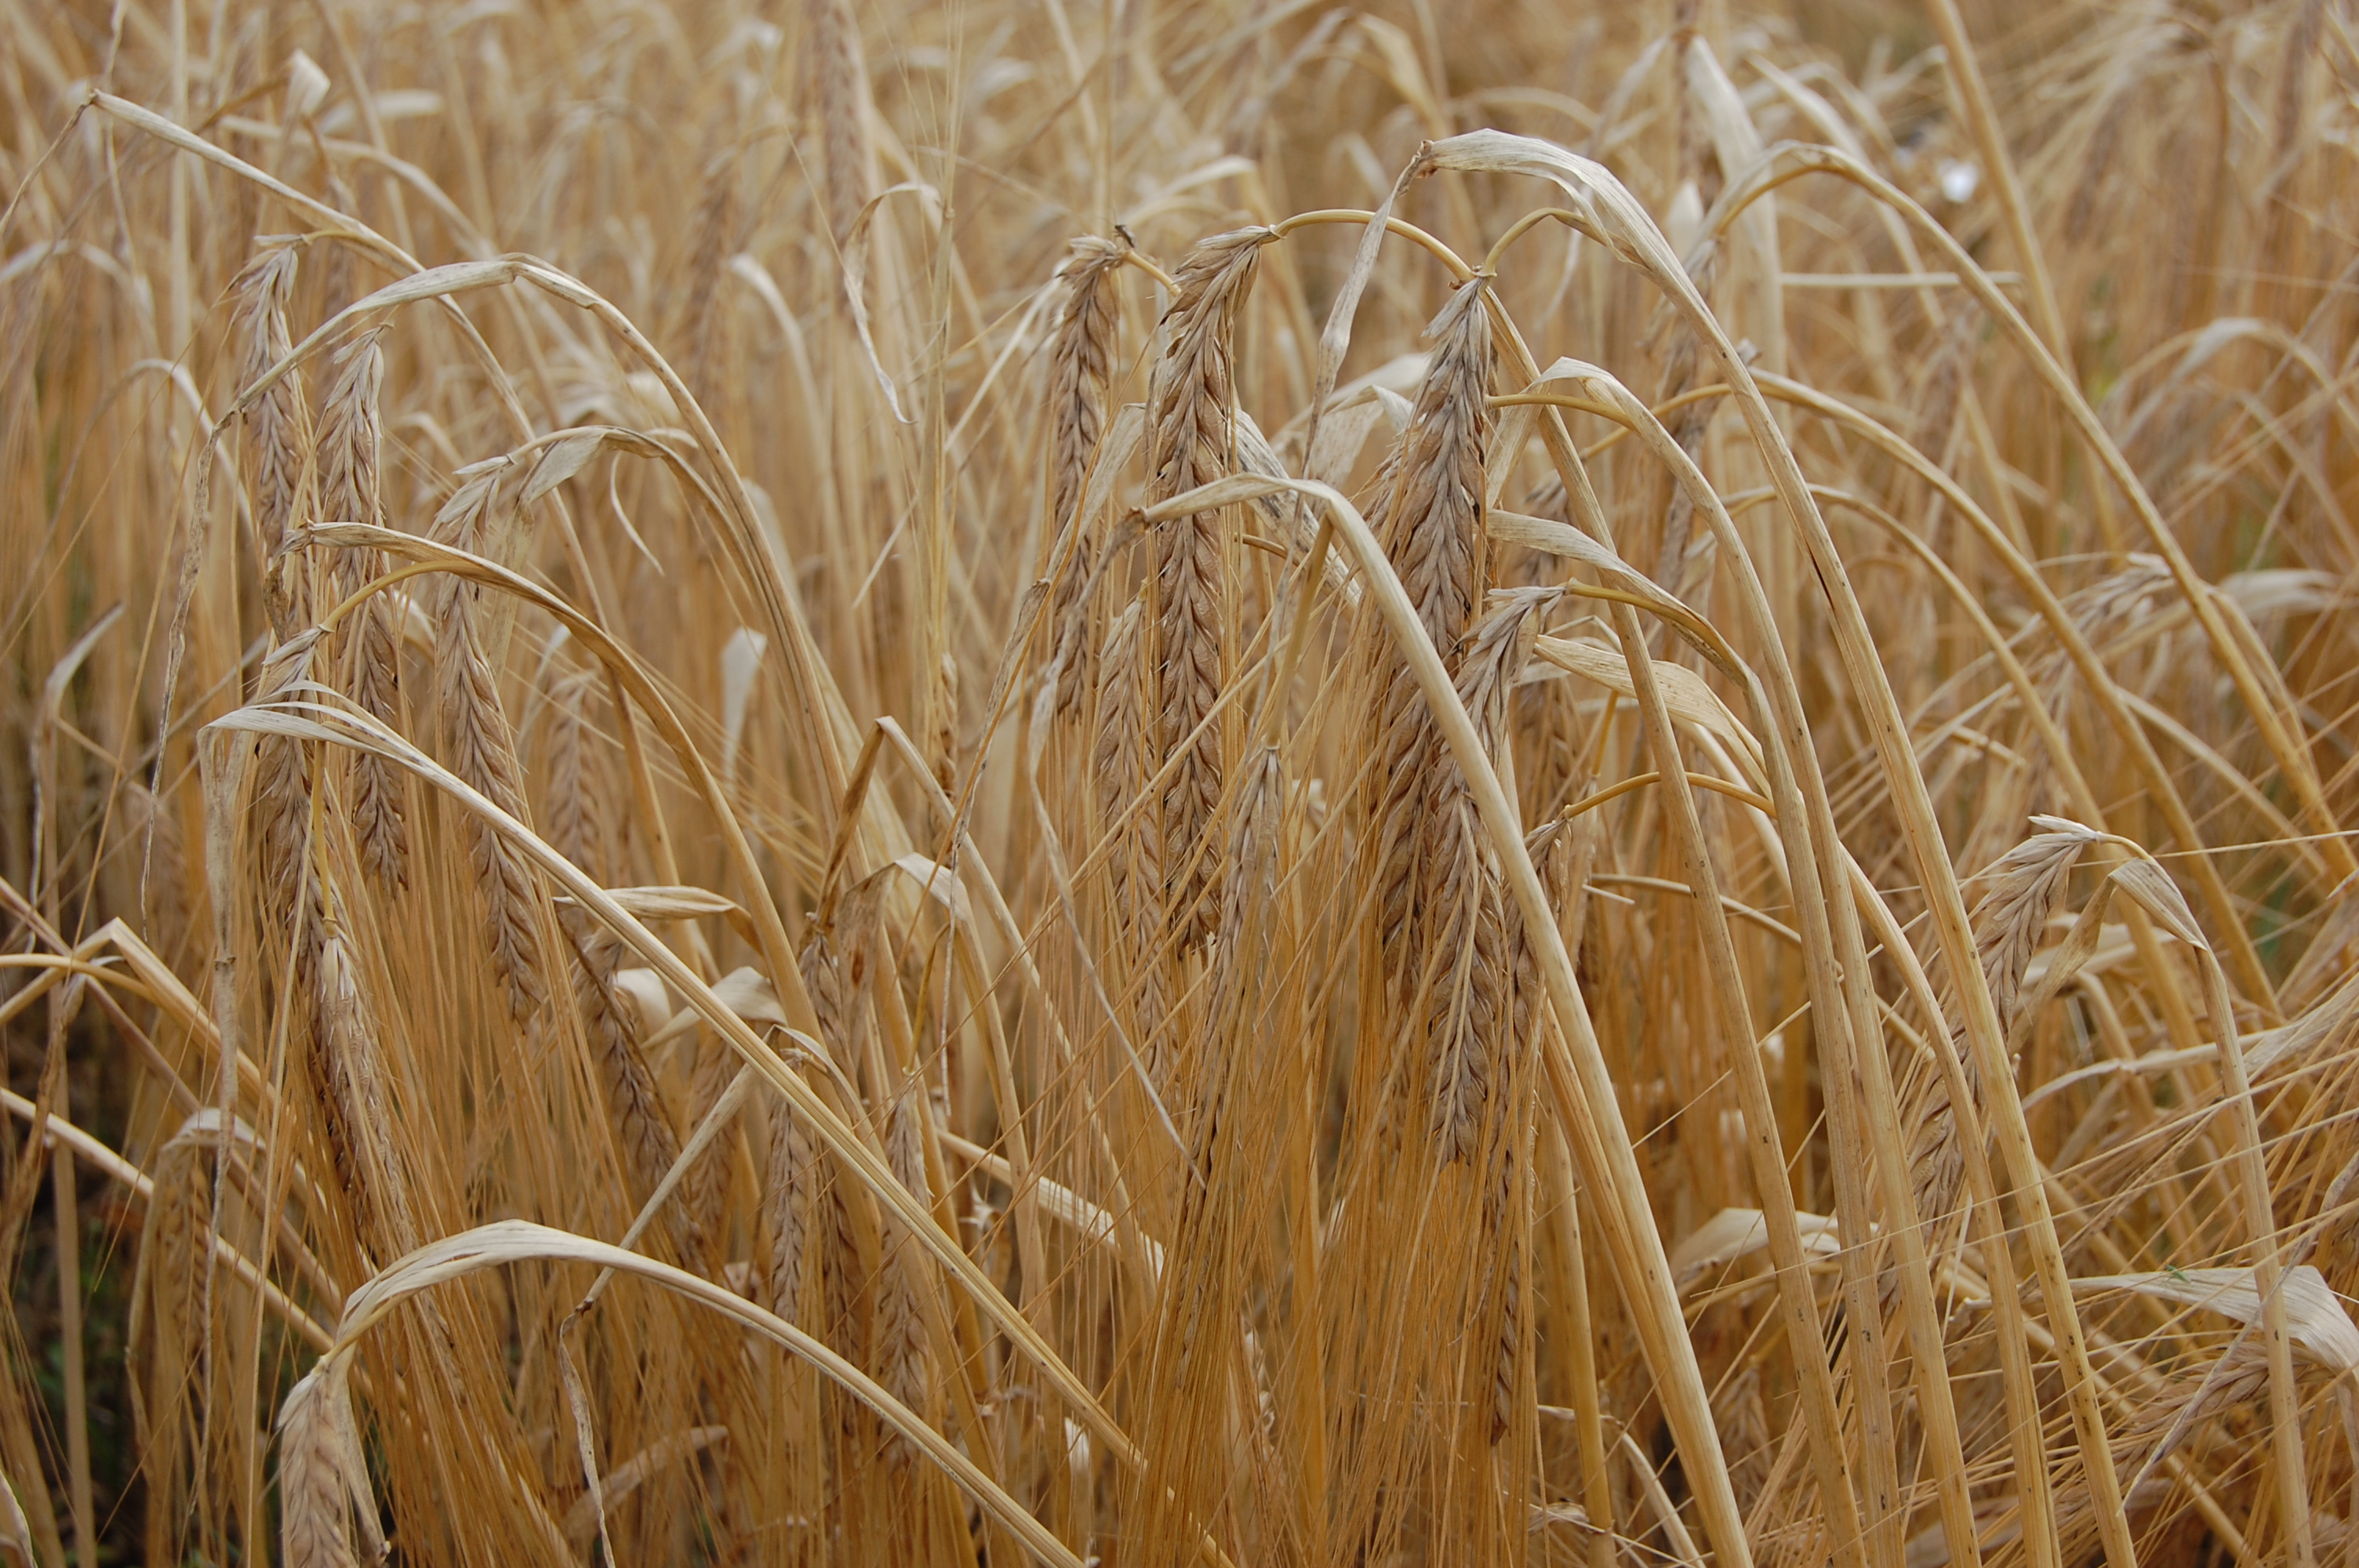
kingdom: Plantae
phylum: Tracheophyta
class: Liliopsida
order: Poales
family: Poaceae
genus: Hordeum
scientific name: Hordeum vulgare
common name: Common barley
